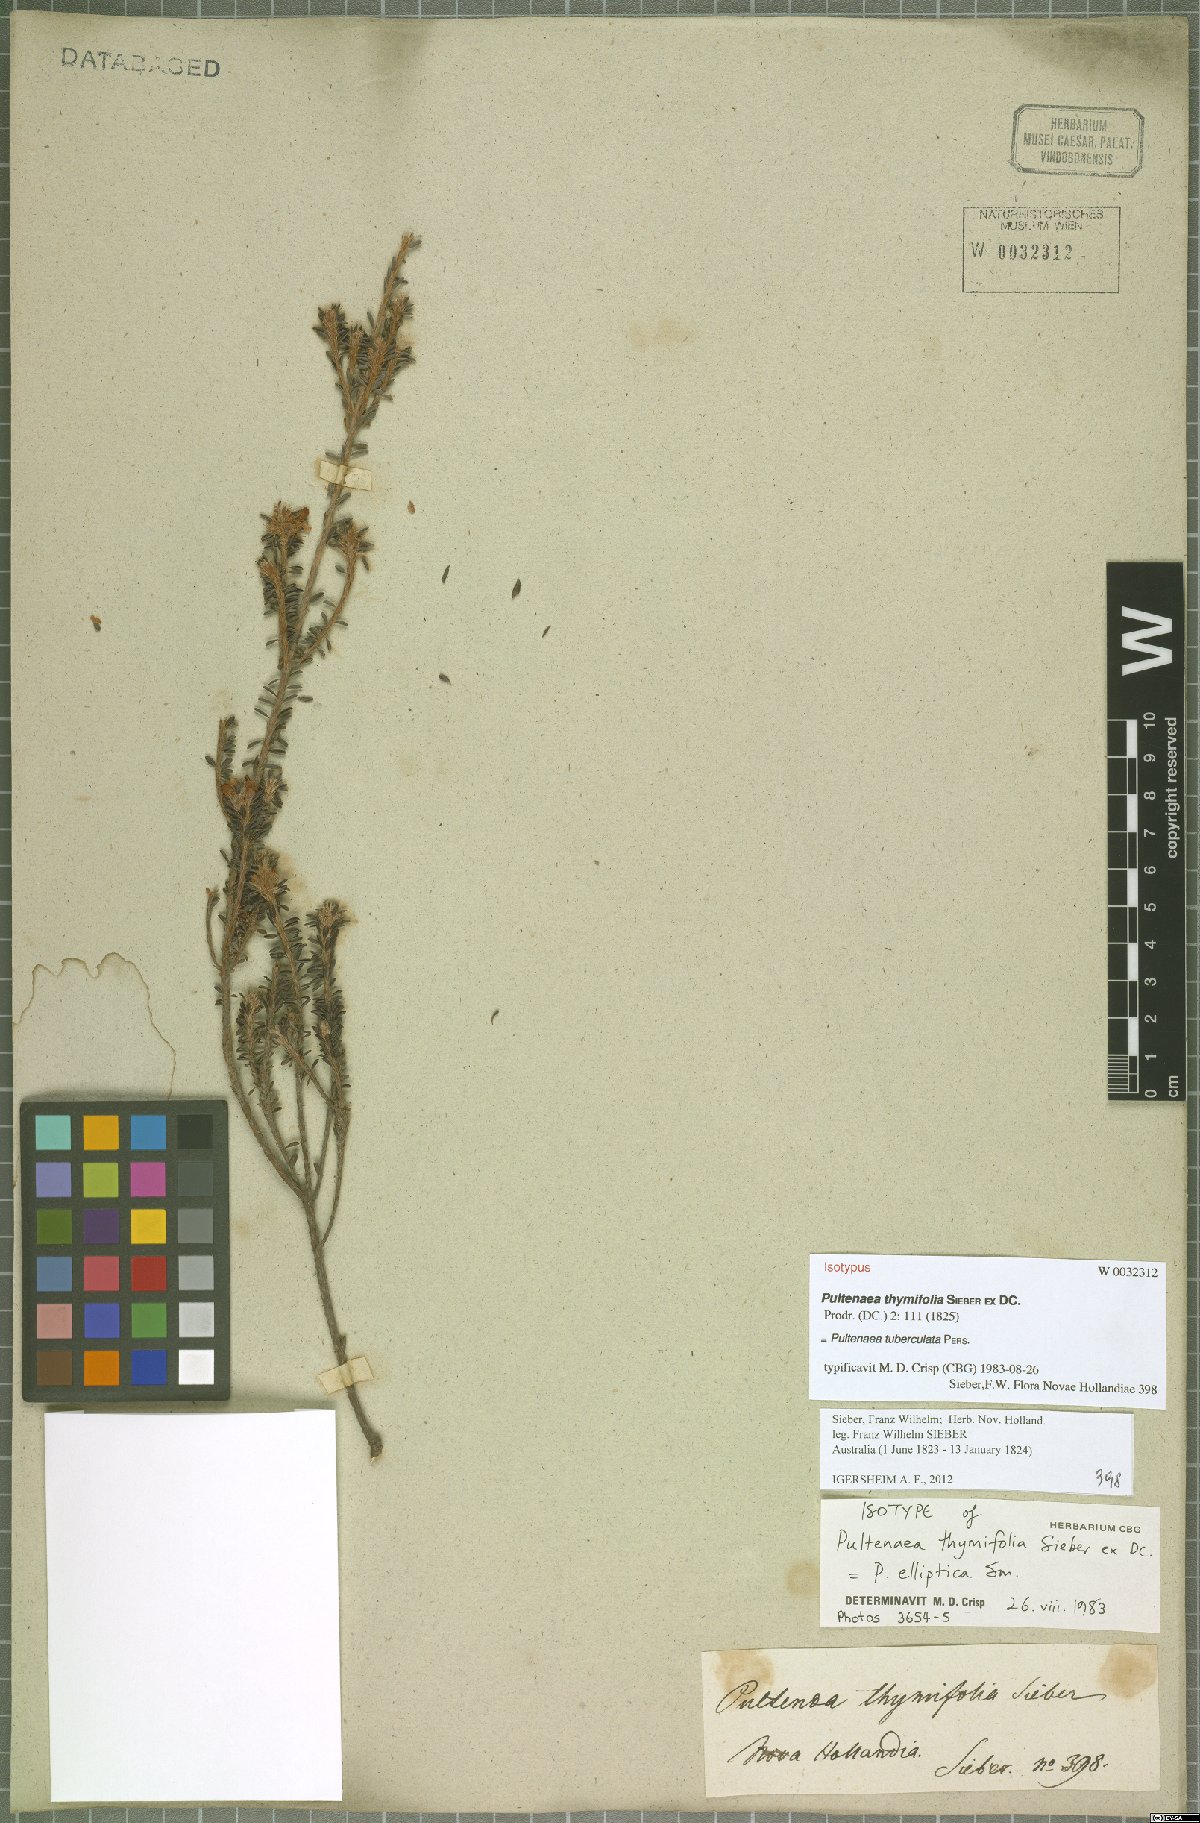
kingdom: Plantae
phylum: Tracheophyta
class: Magnoliopsida
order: Fabales
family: Fabaceae
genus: Pultenaea
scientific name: Pultenaea tuberculata
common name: Wreath bush-pea
